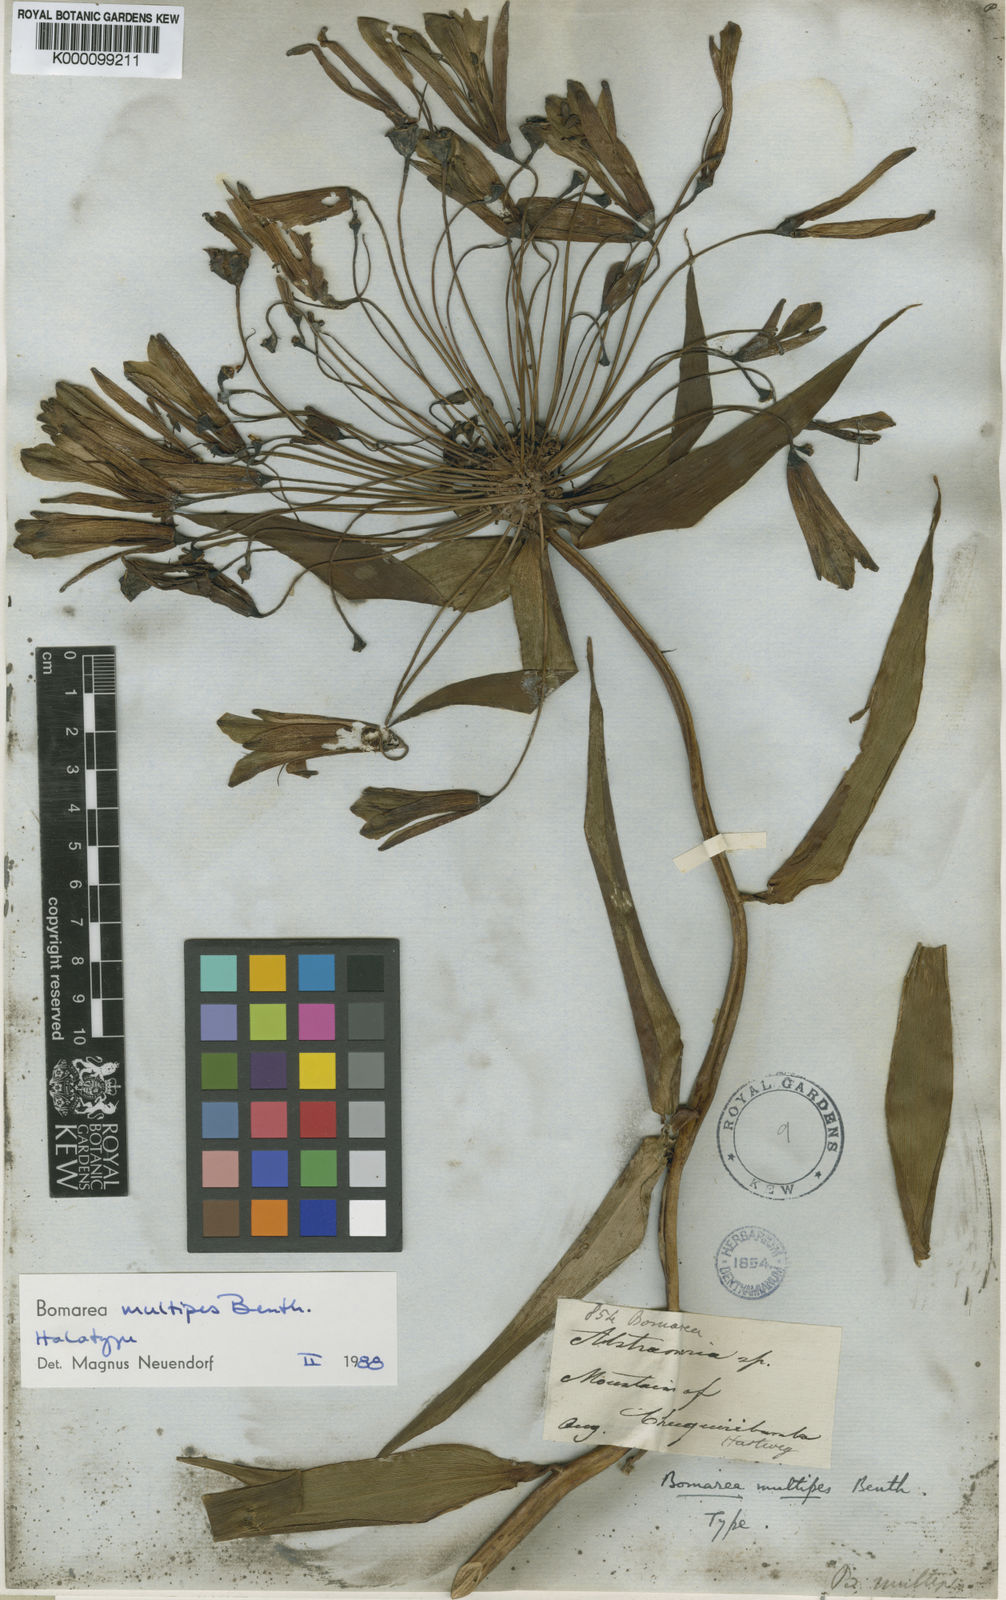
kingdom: Plantae
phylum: Tracheophyta
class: Liliopsida
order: Liliales
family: Alstroemeriaceae
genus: Bomarea
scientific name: Bomarea multipes
